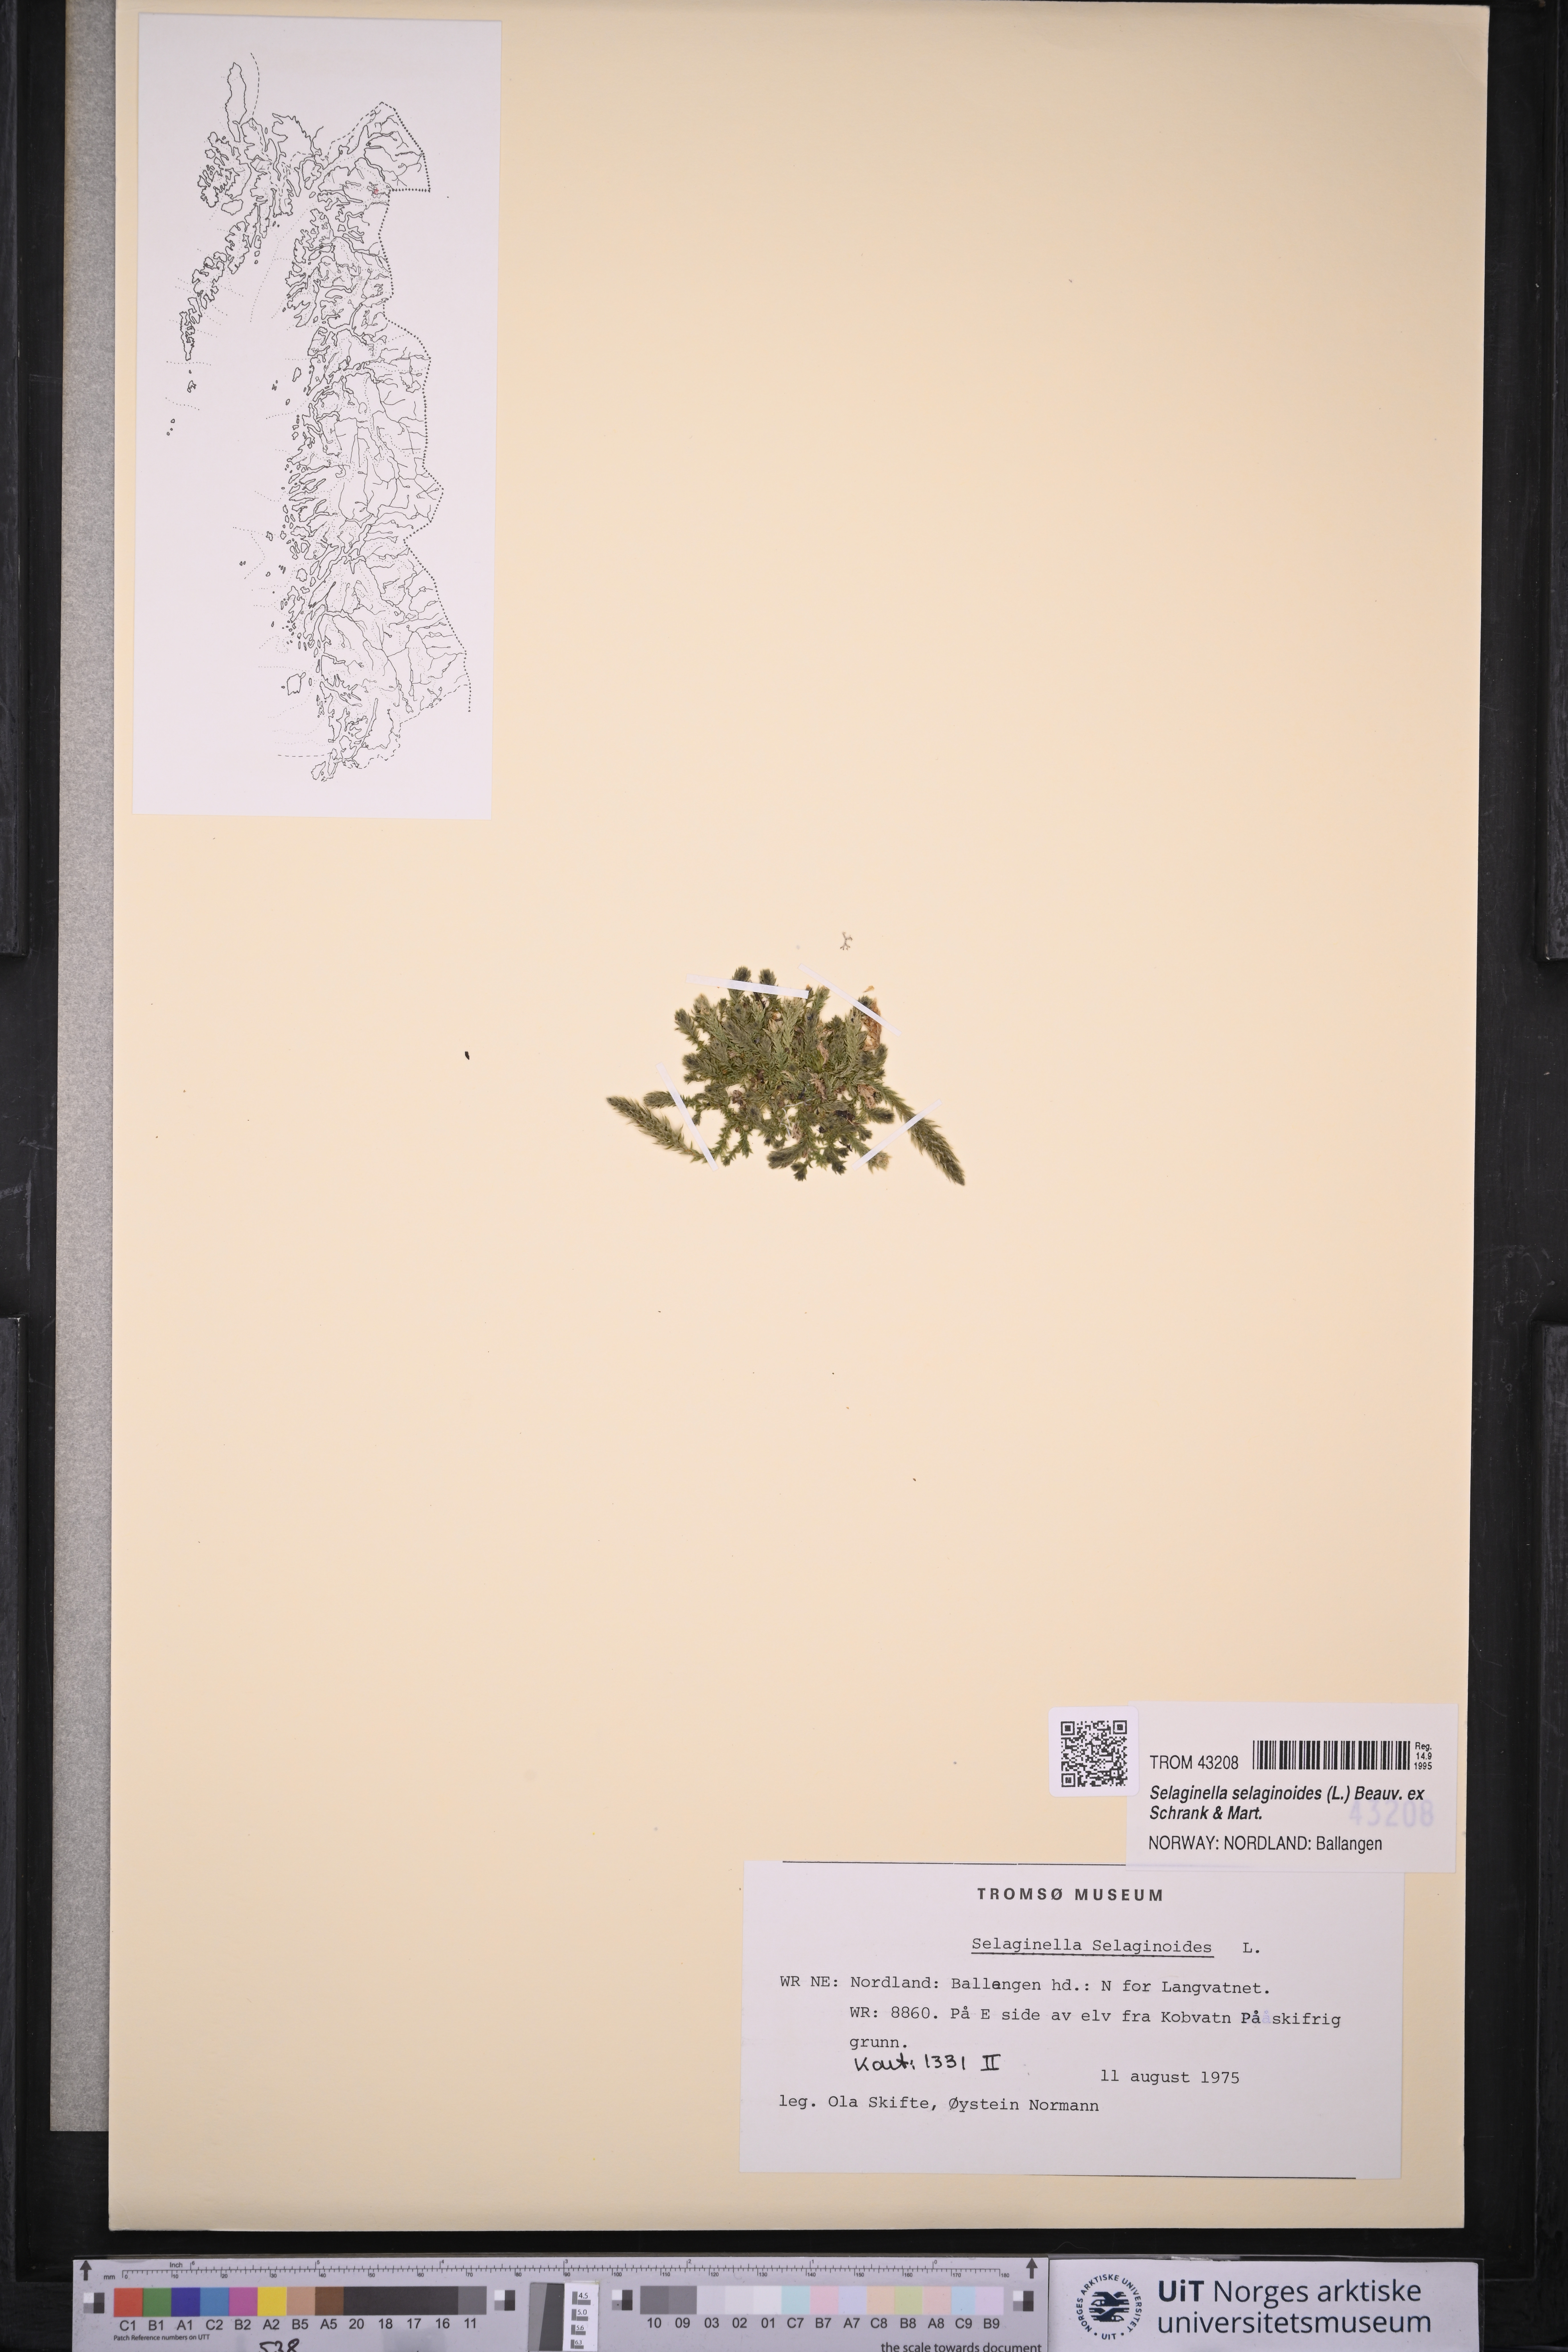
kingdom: Plantae
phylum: Tracheophyta
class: Lycopodiopsida
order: Selaginellales
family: Selaginellaceae
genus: Selaginella
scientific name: Selaginella selaginoides
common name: Prickly mountain-moss
